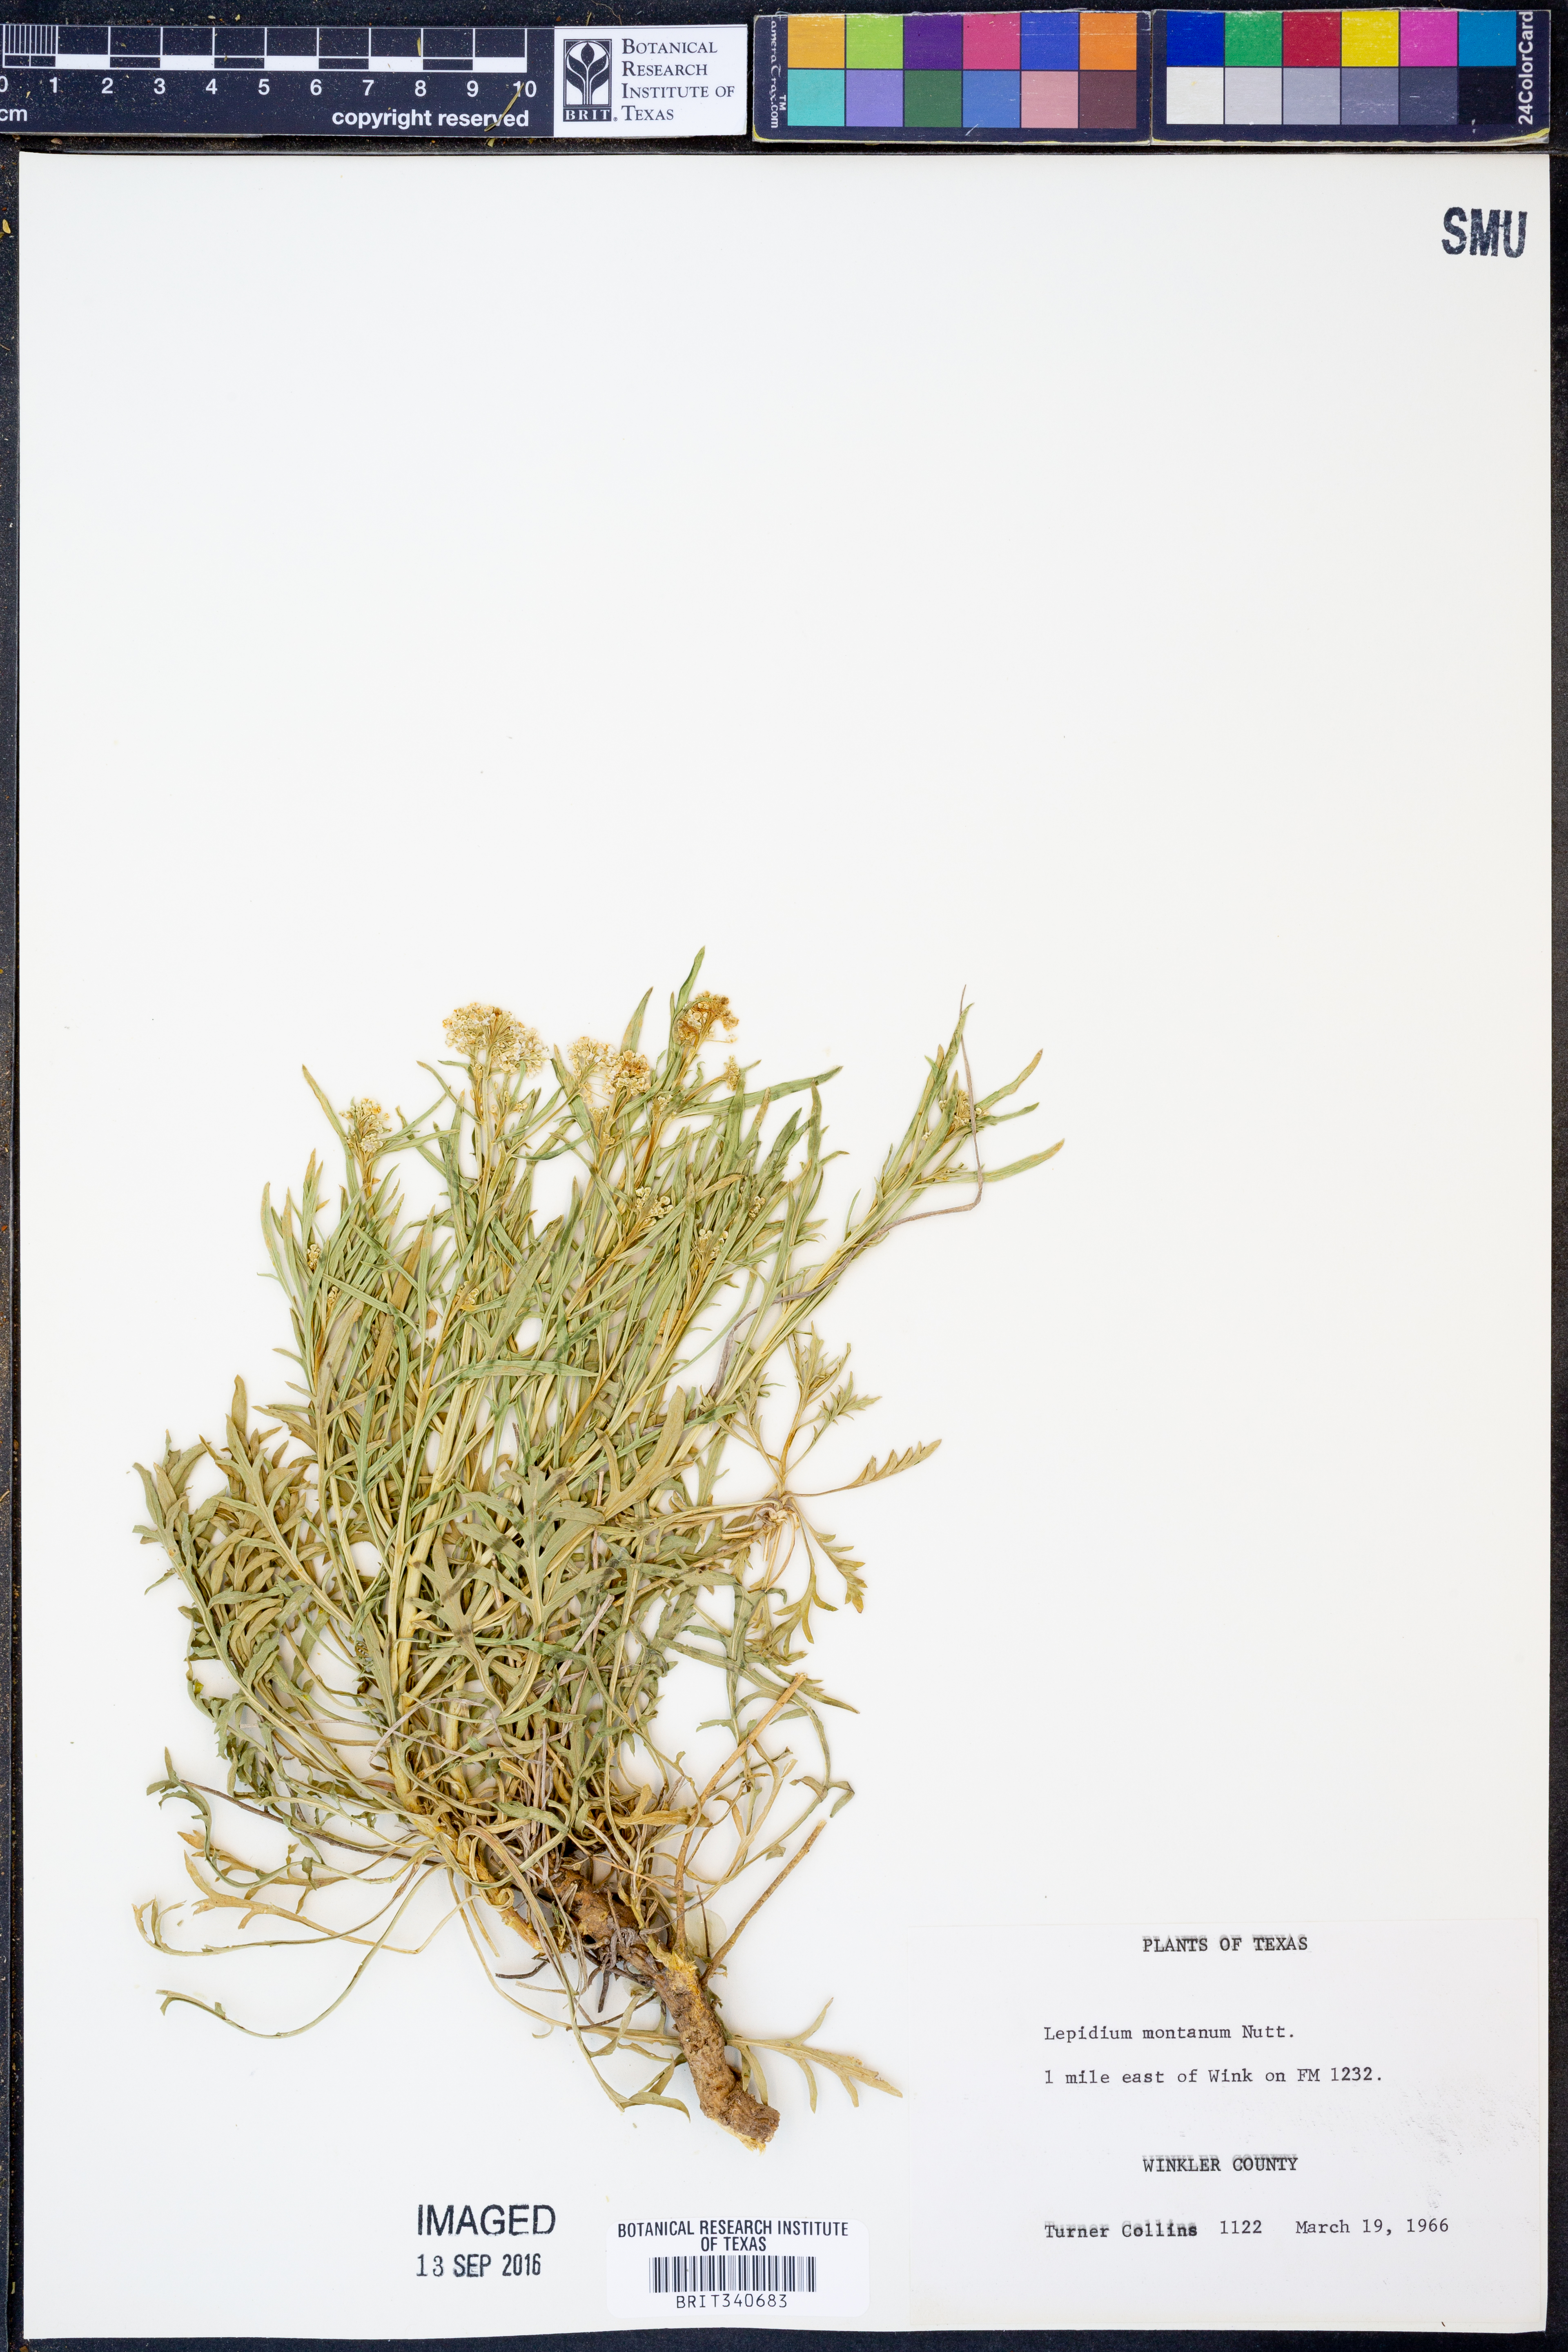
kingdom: Plantae
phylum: Tracheophyta
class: Magnoliopsida
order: Brassicales
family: Brassicaceae
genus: Lepidium
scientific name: Lepidium montanum
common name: Mountain pepperplant
